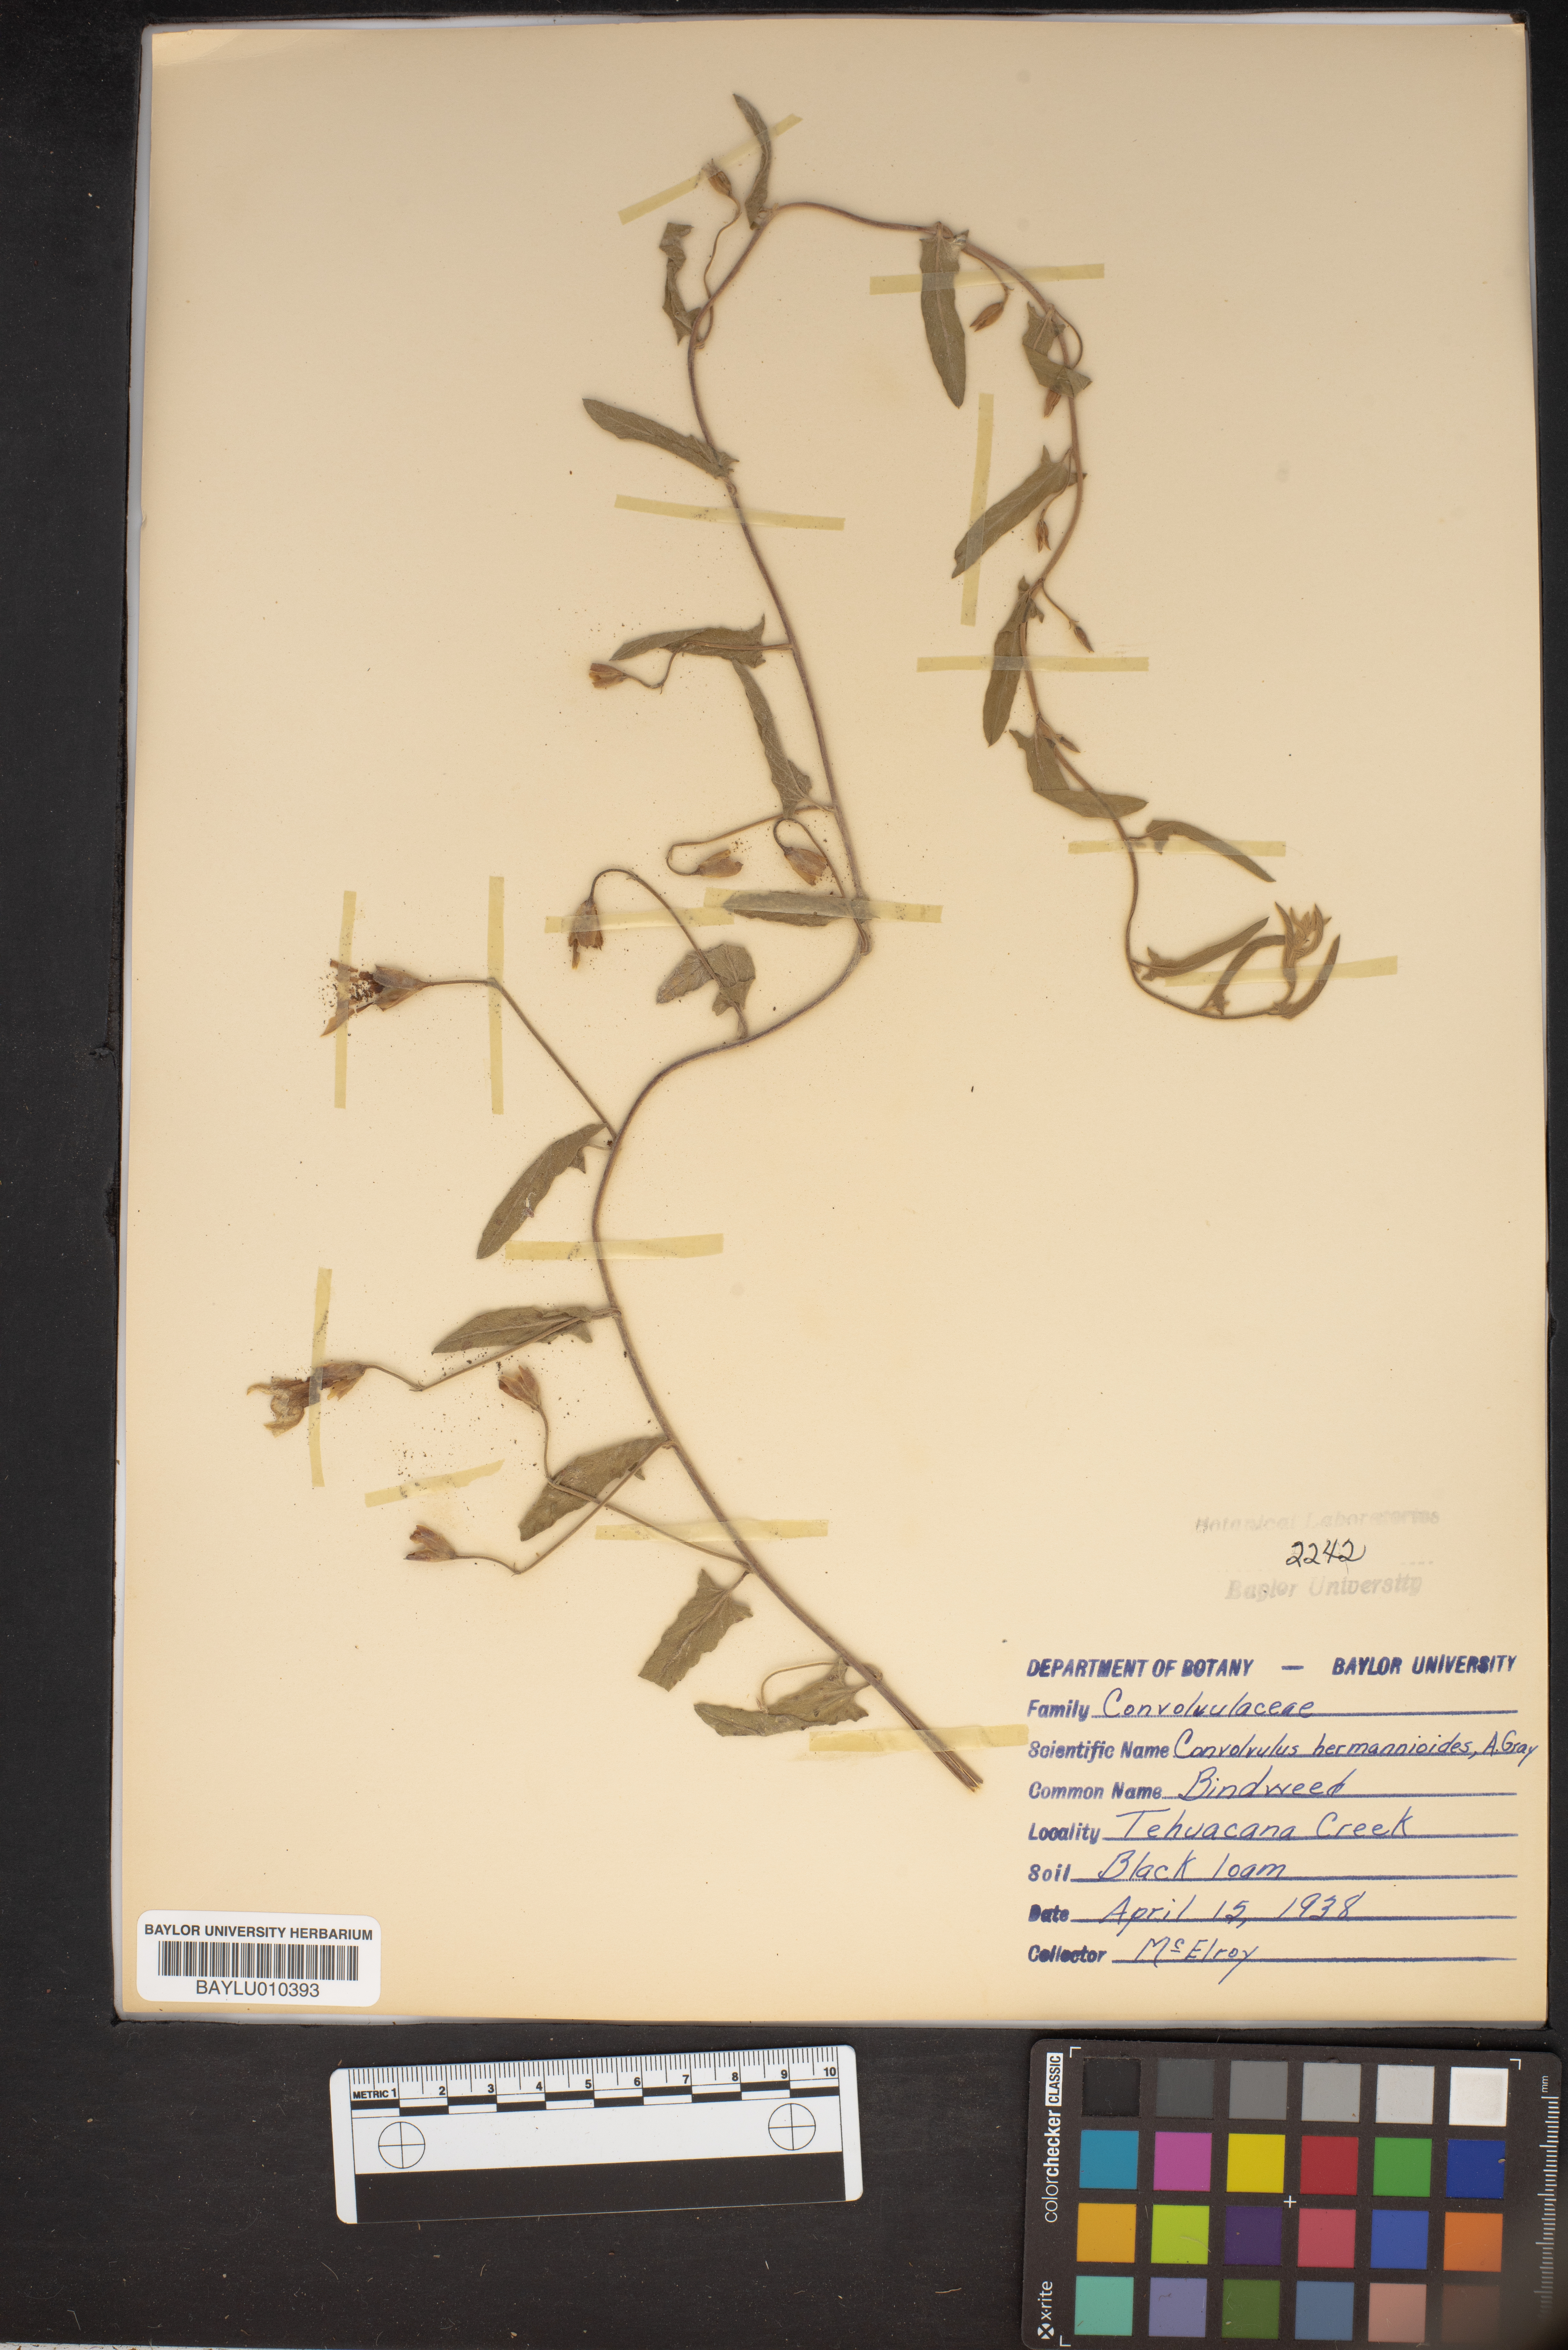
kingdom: Plantae
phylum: Tracheophyta
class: Magnoliopsida
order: Solanales
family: Convolvulaceae
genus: Convolvulus
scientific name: Convolvulus equitans
